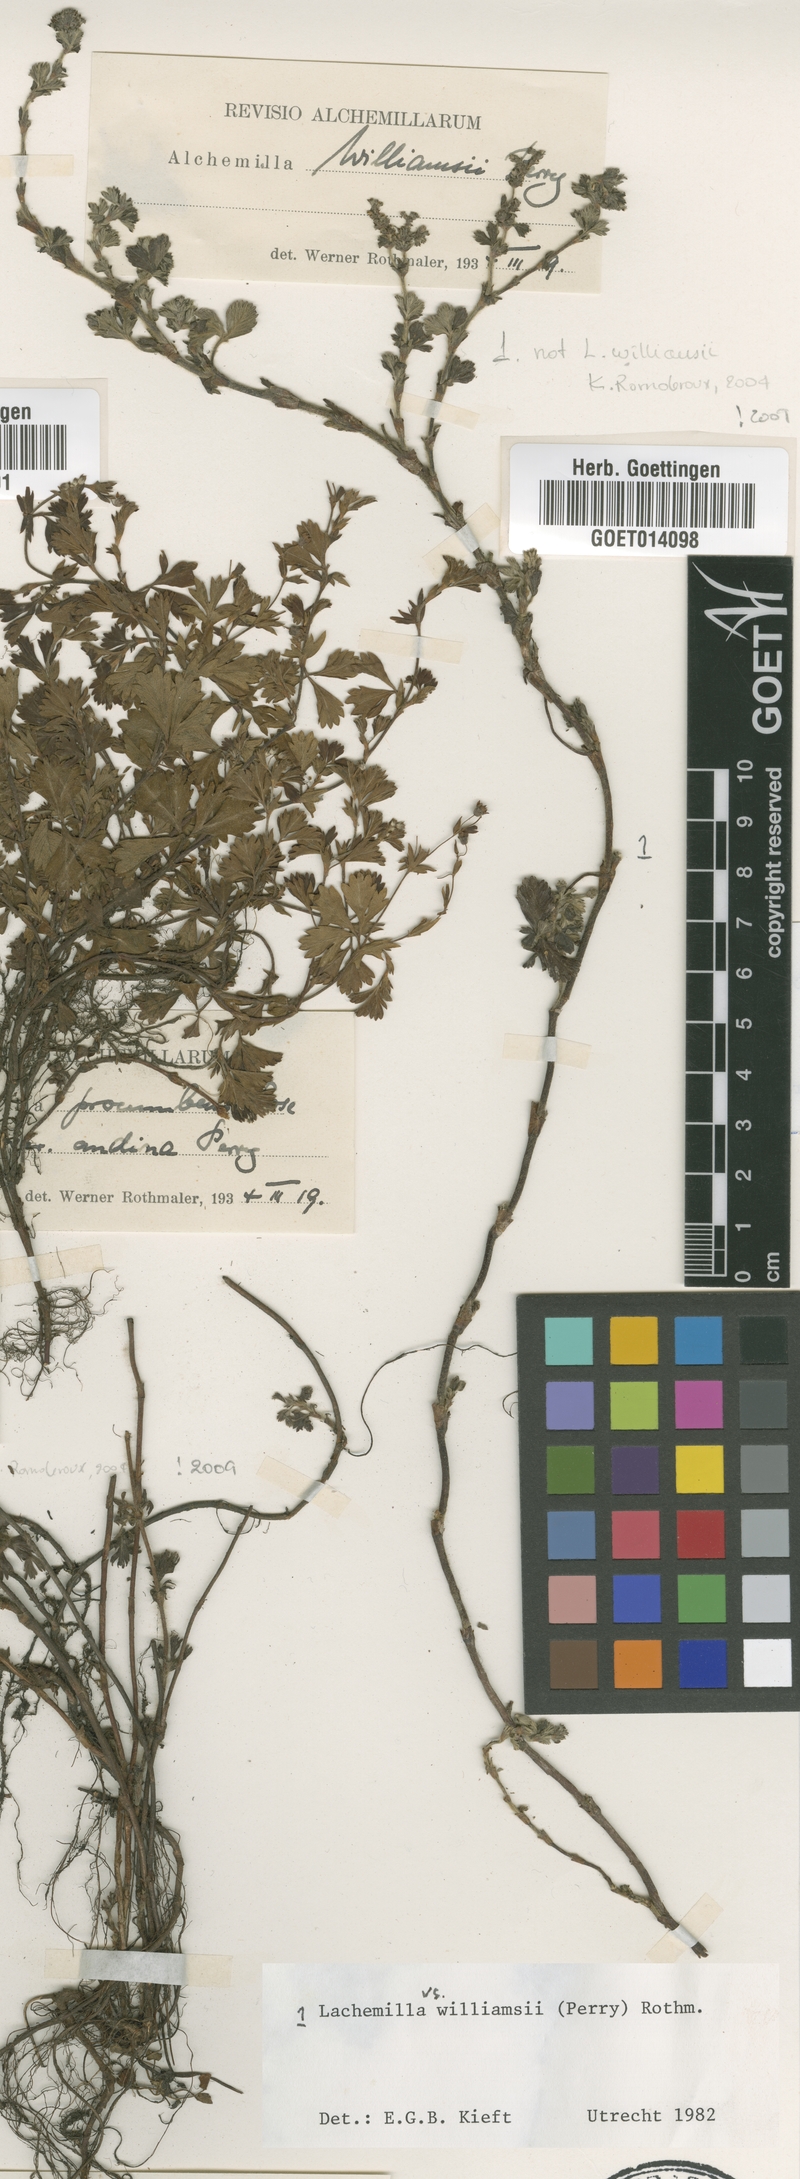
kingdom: Plantae
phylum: Tracheophyta
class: Magnoliopsida
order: Rosales
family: Rosaceae
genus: Lachemilla
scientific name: Lachemilla williamsii
